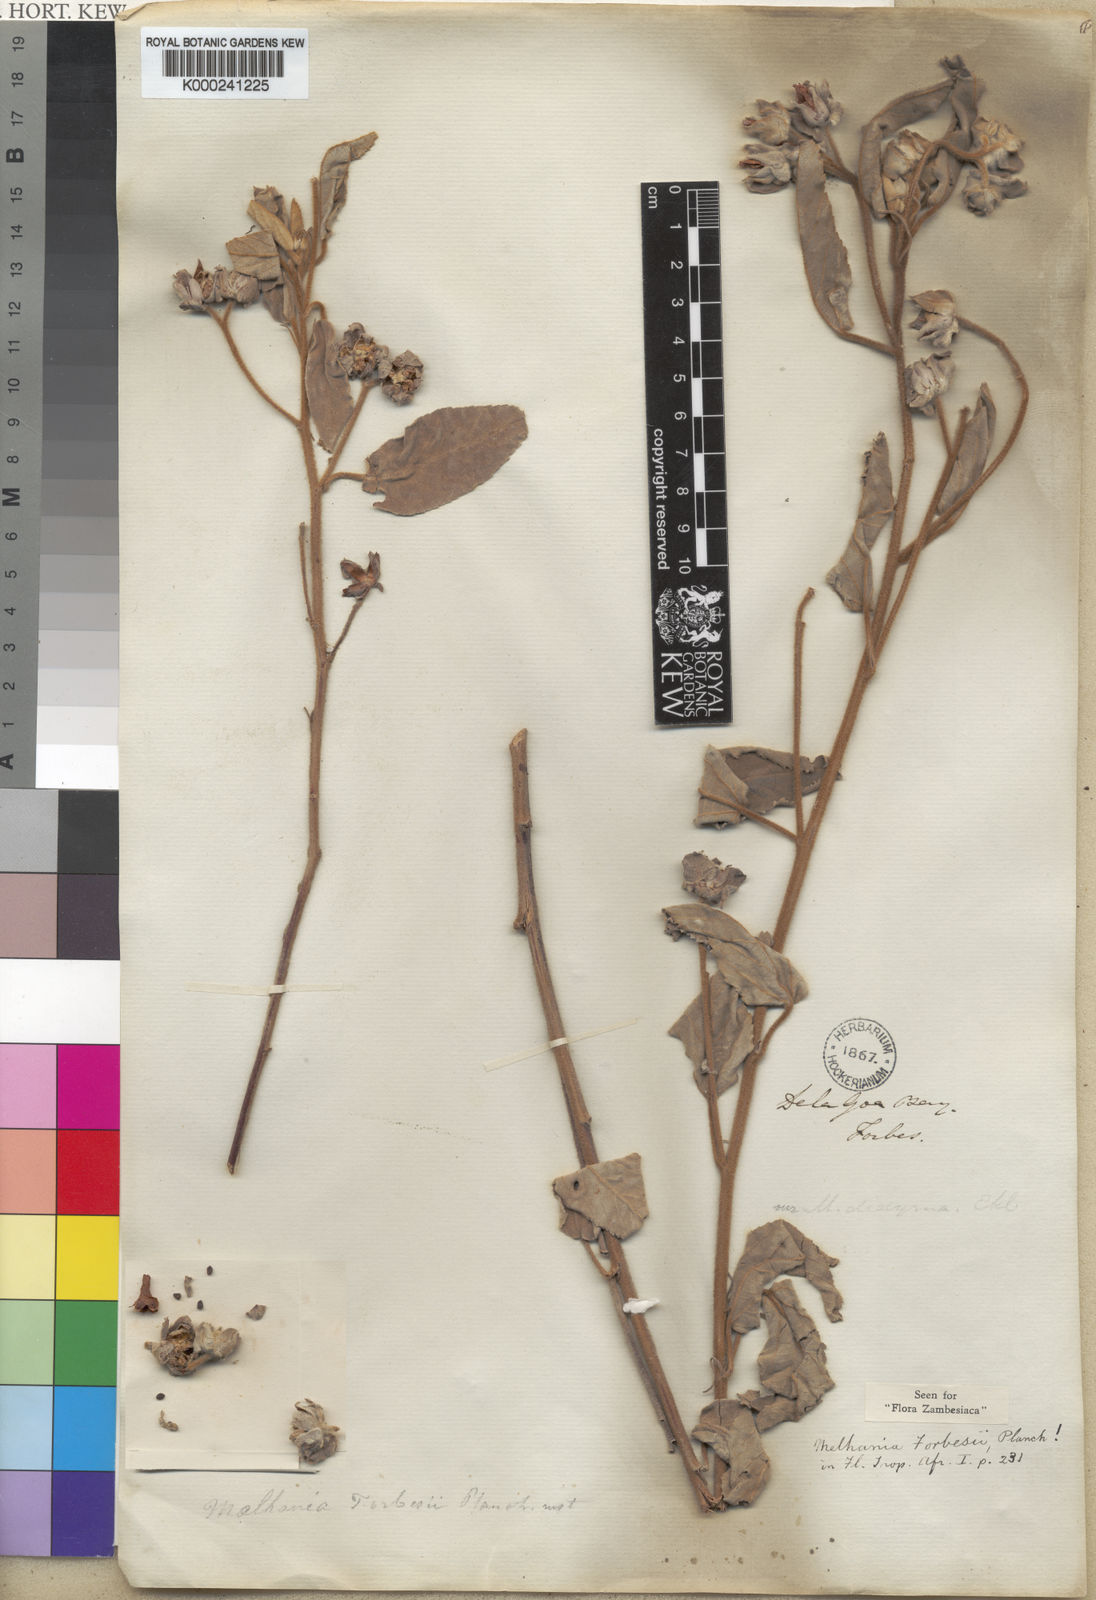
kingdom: Plantae
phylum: Tracheophyta
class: Magnoliopsida
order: Malvales
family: Malvaceae
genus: Melhania
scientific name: Melhania forbesii
